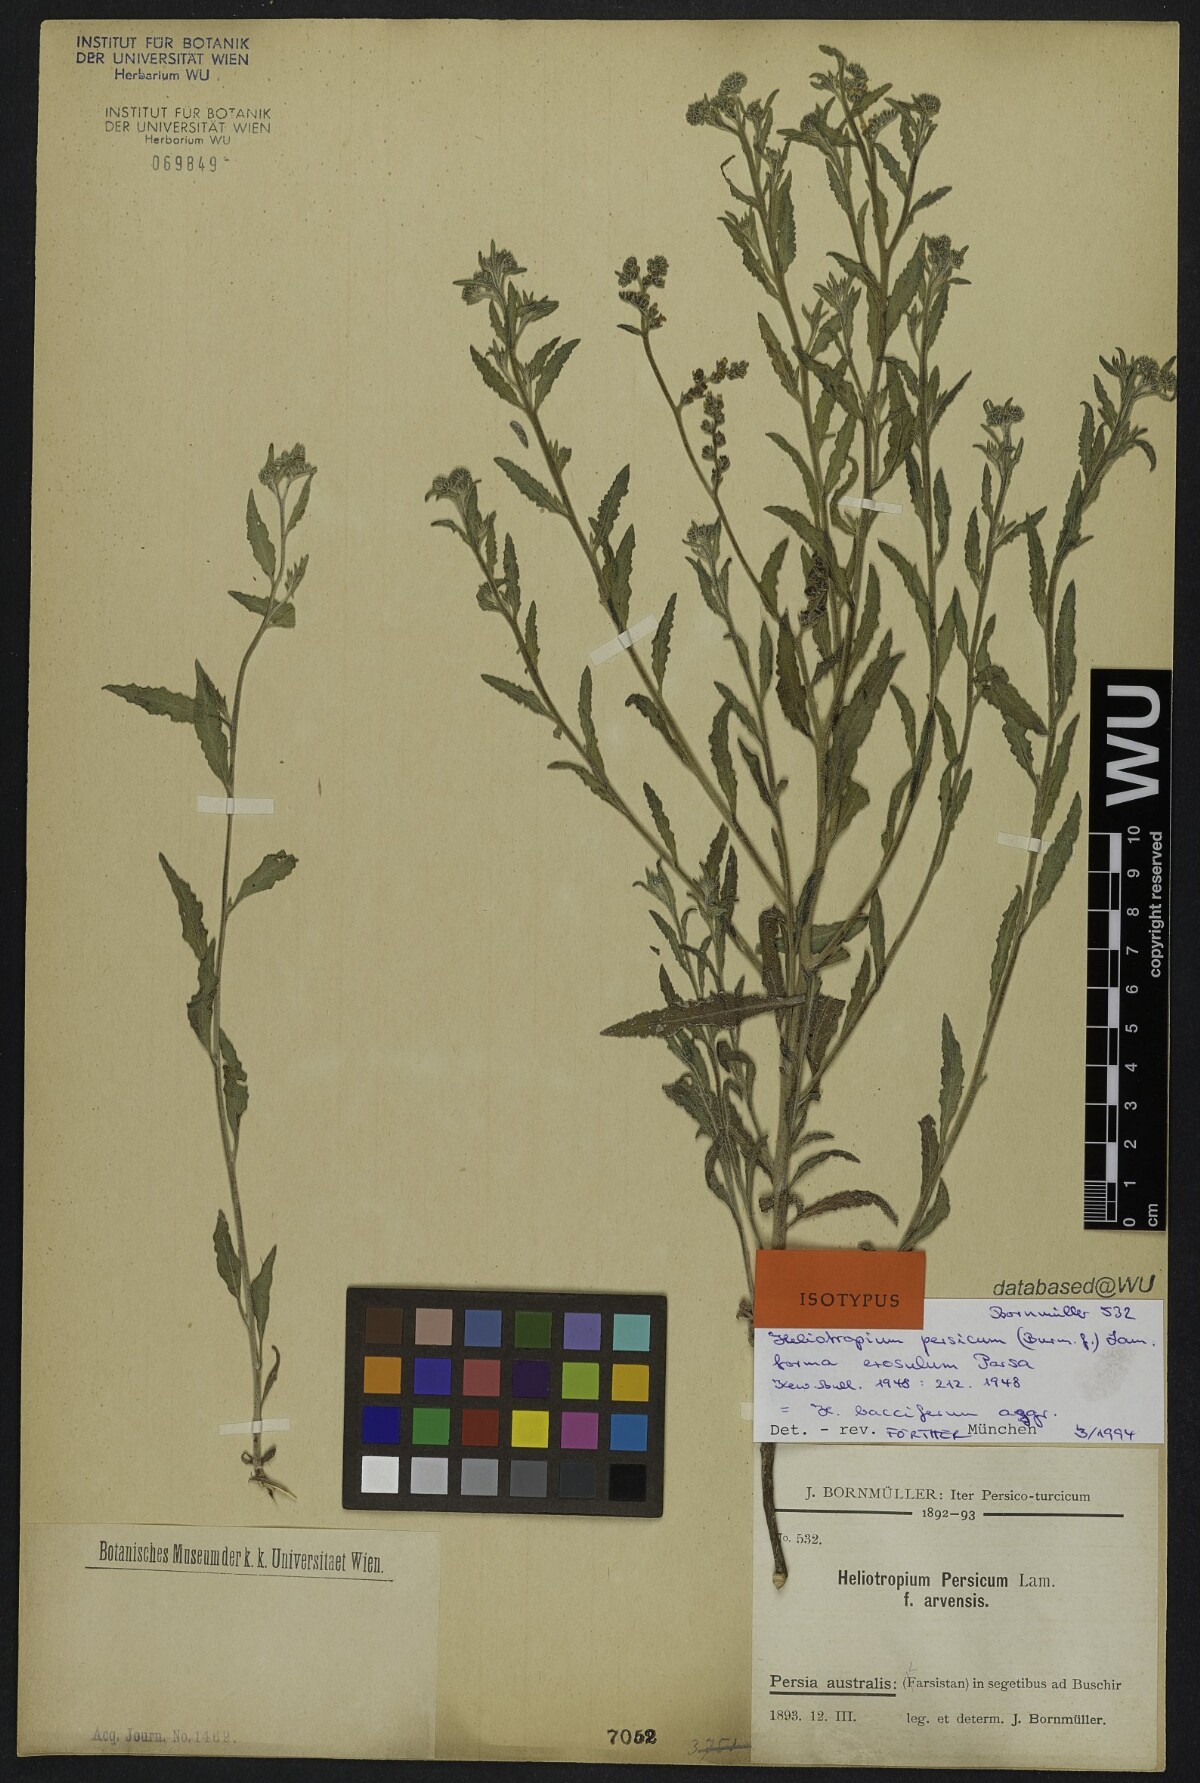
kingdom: Plantae
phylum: Tracheophyta
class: Magnoliopsida
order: Boraginales
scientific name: Boraginales
